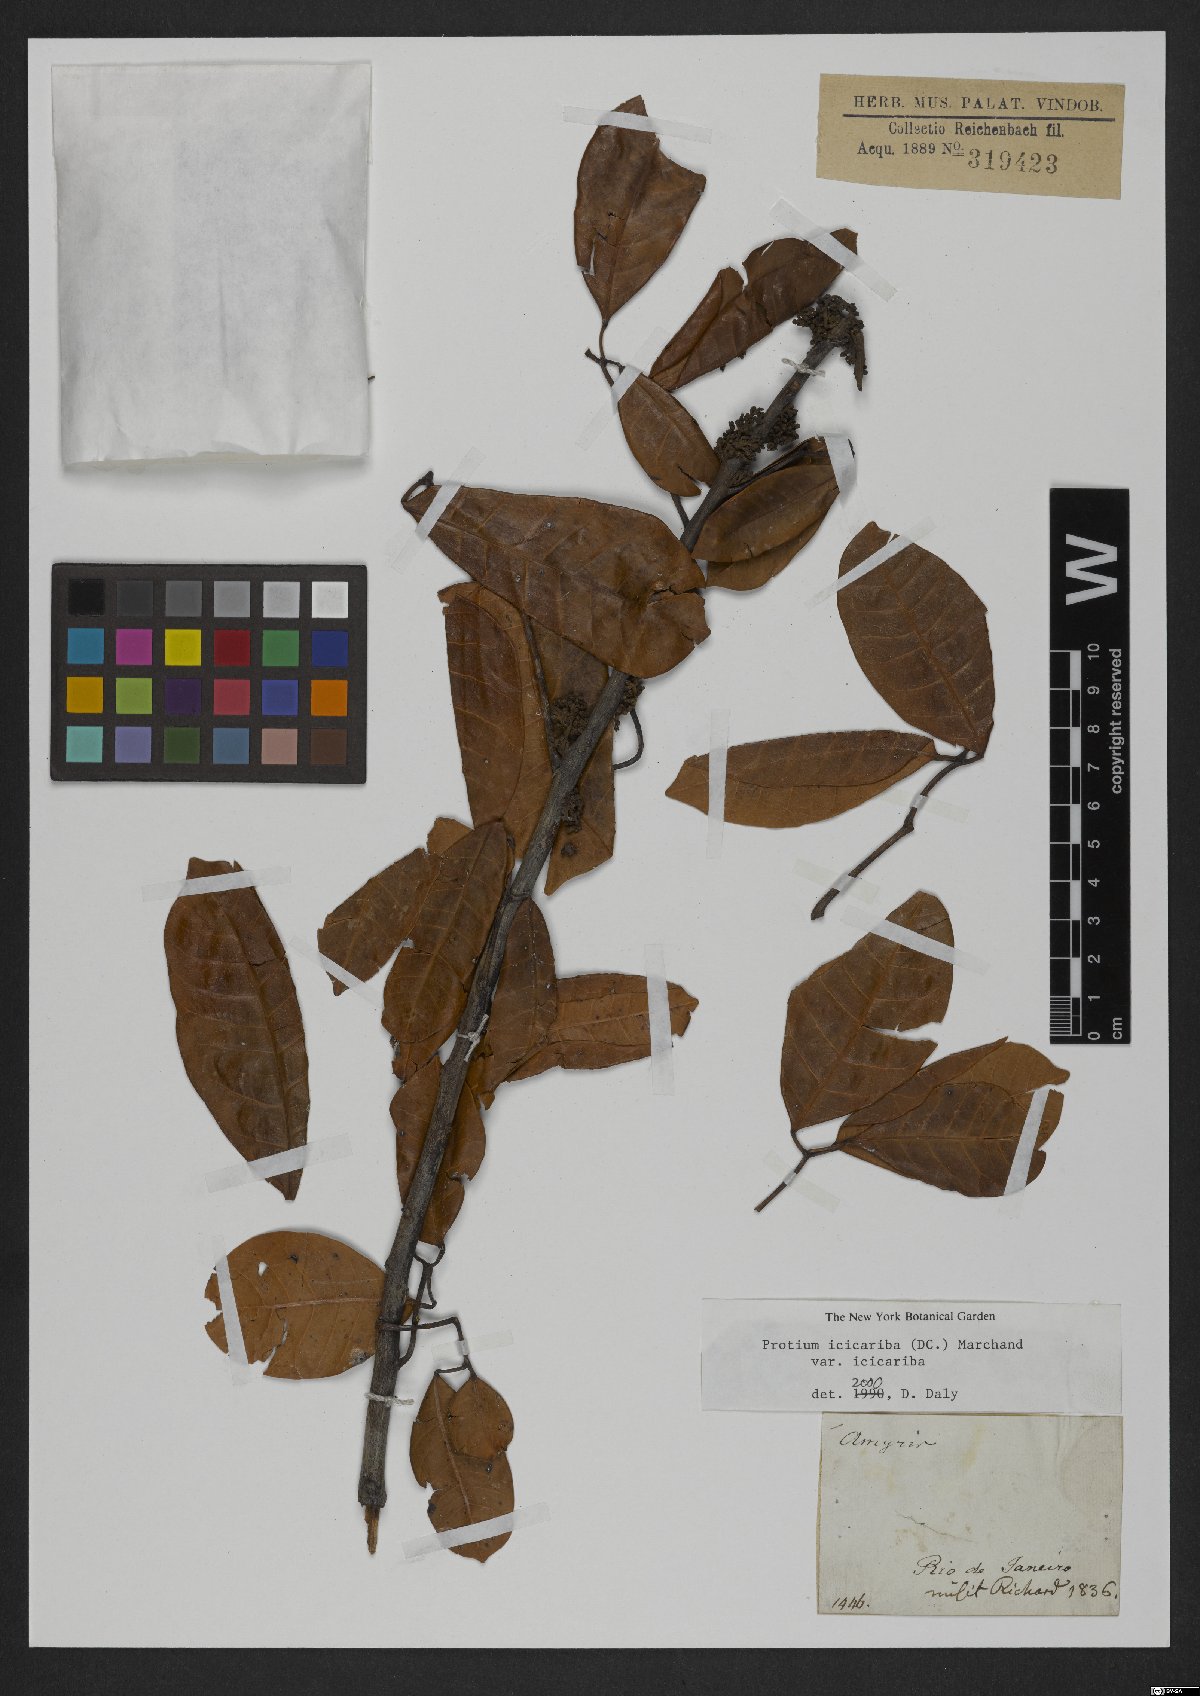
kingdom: Plantae
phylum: Tracheophyta
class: Magnoliopsida
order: Sapindales
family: Burseraceae
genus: Protium
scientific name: Protium icicariba
